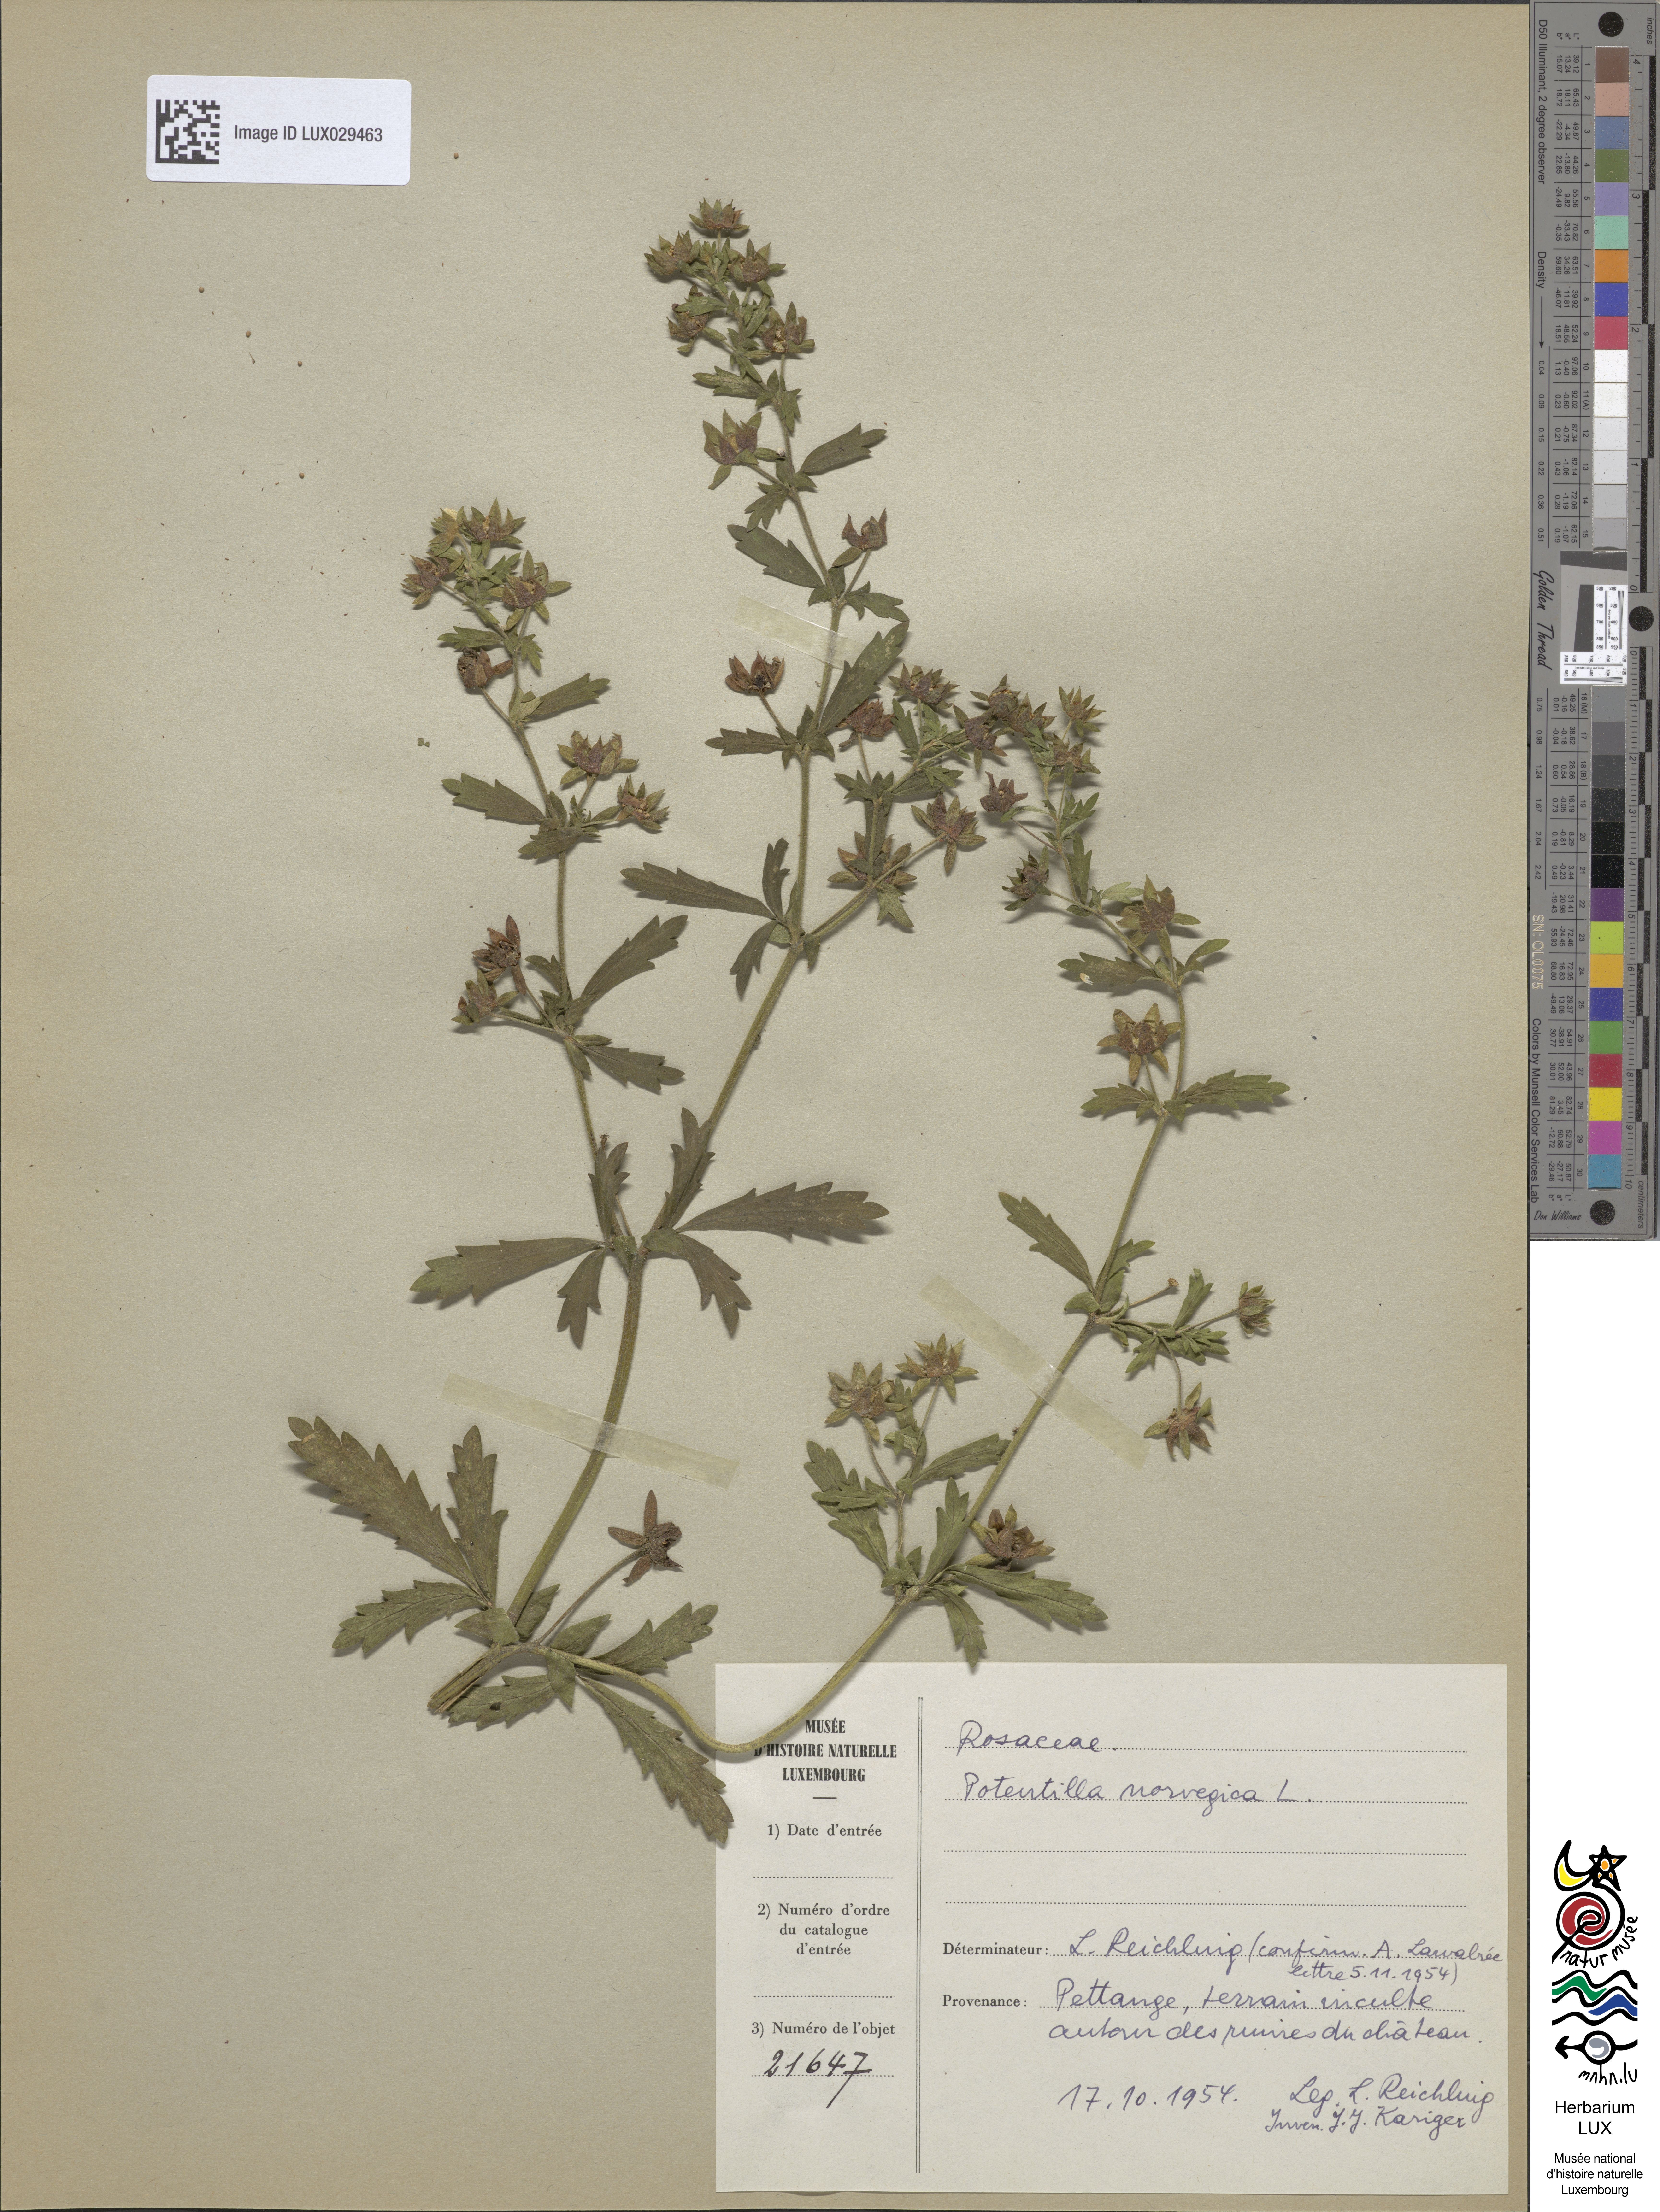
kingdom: Plantae
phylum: Tracheophyta
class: Magnoliopsida
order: Rosales
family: Rosaceae
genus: Potentilla
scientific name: Potentilla norvegica
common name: Ternate-leaved cinquefoil
